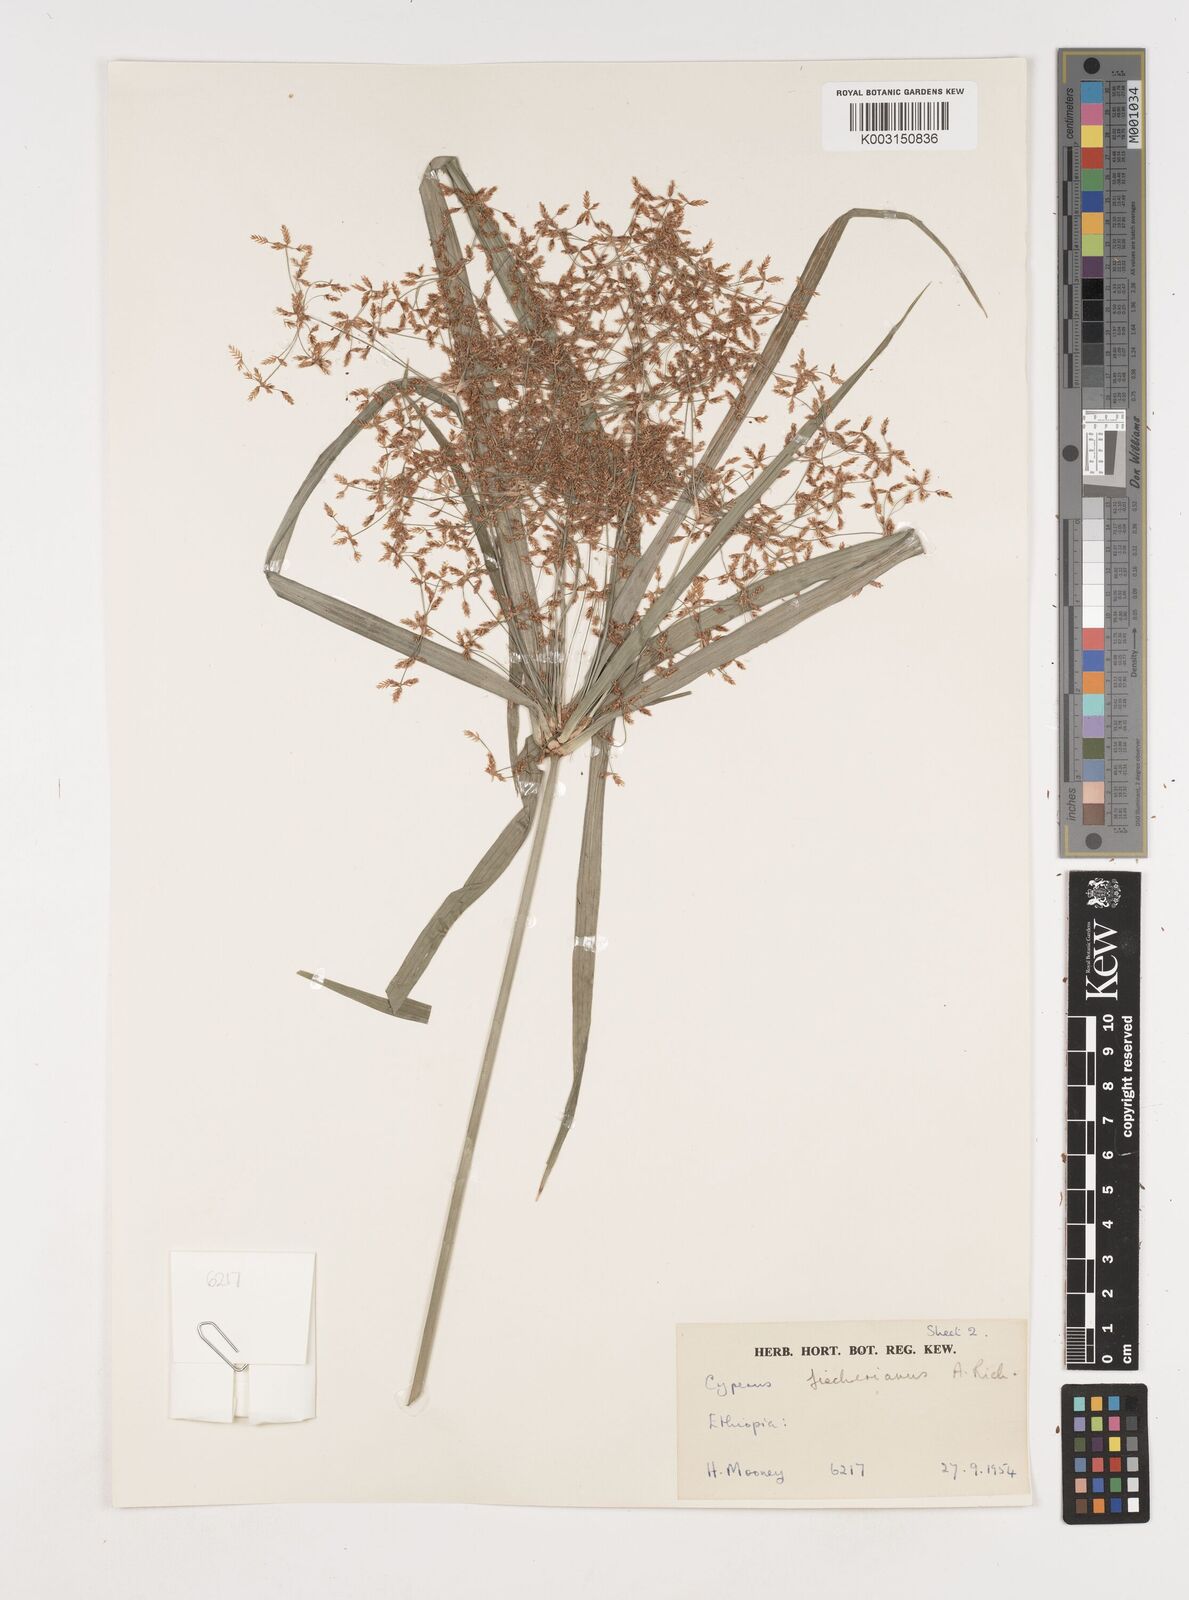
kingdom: Plantae
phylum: Tracheophyta
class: Liliopsida
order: Poales
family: Cyperaceae
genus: Cyperus
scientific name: Cyperus fischerianus
